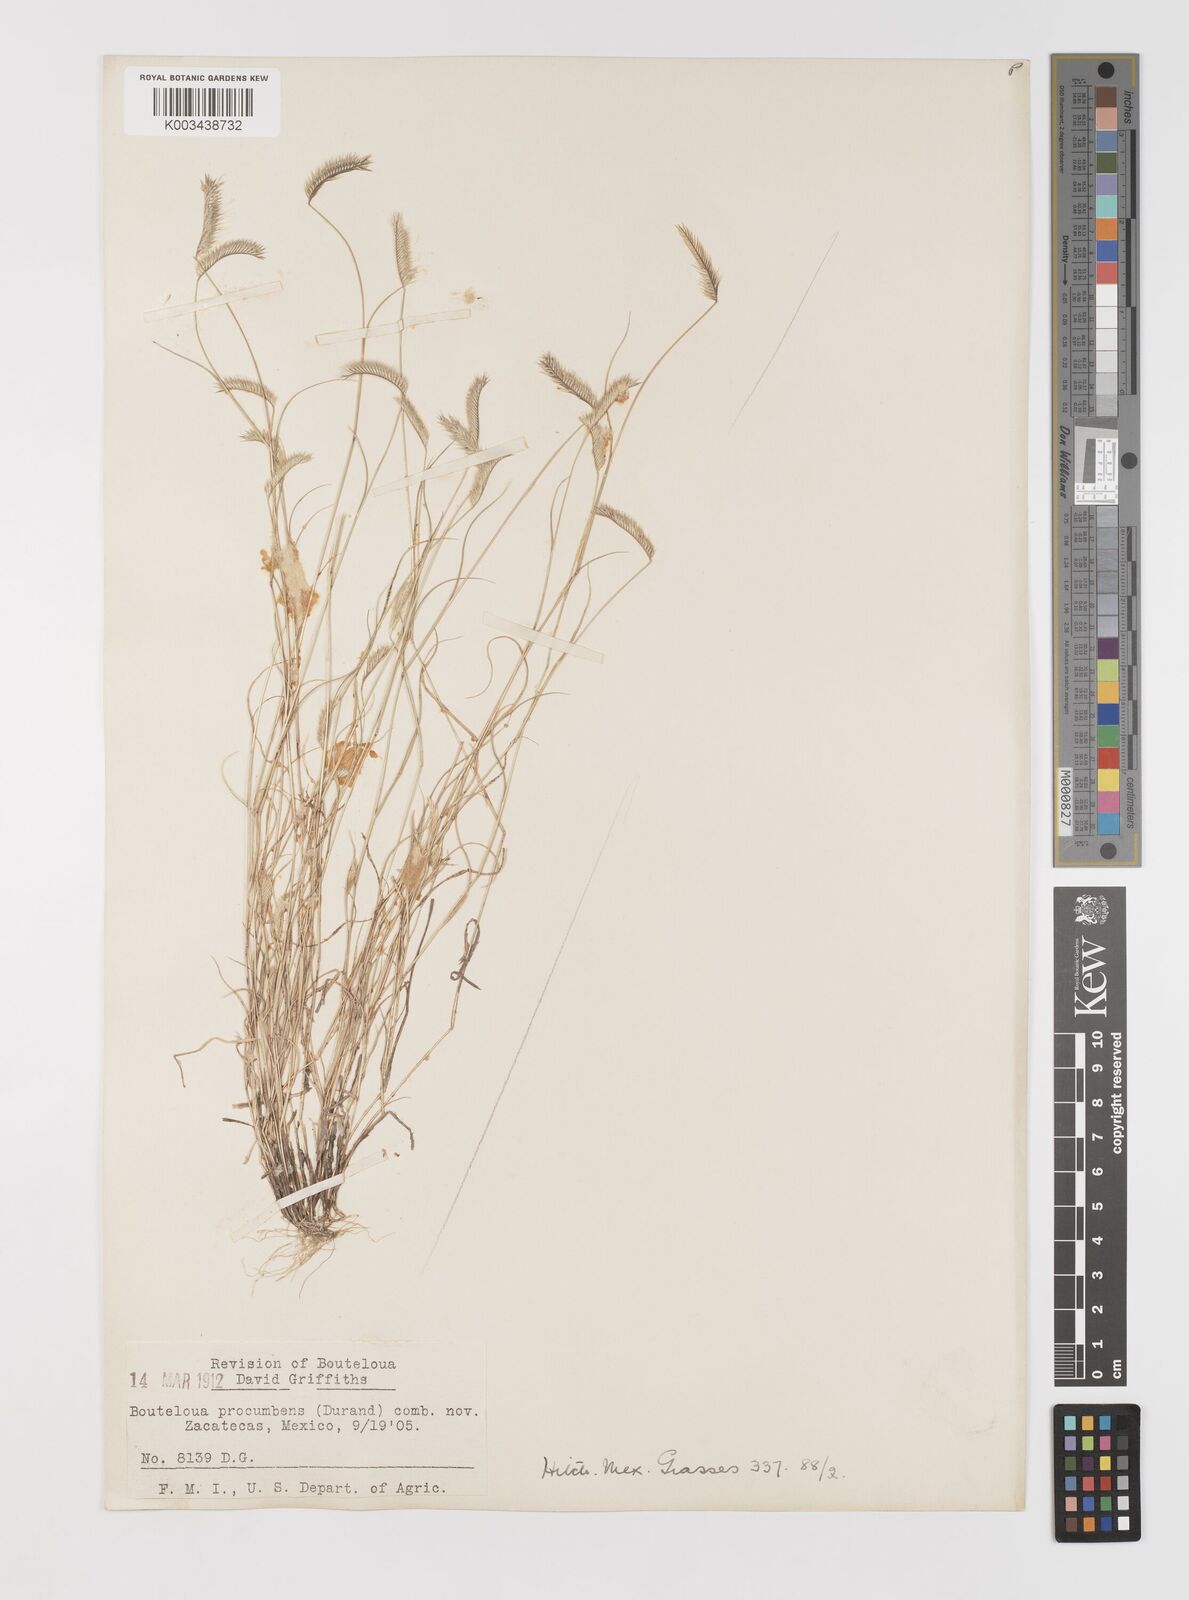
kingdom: Plantae
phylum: Tracheophyta
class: Liliopsida
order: Poales
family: Poaceae
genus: Bouteloua
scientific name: Bouteloua simplex
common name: Mat grama
